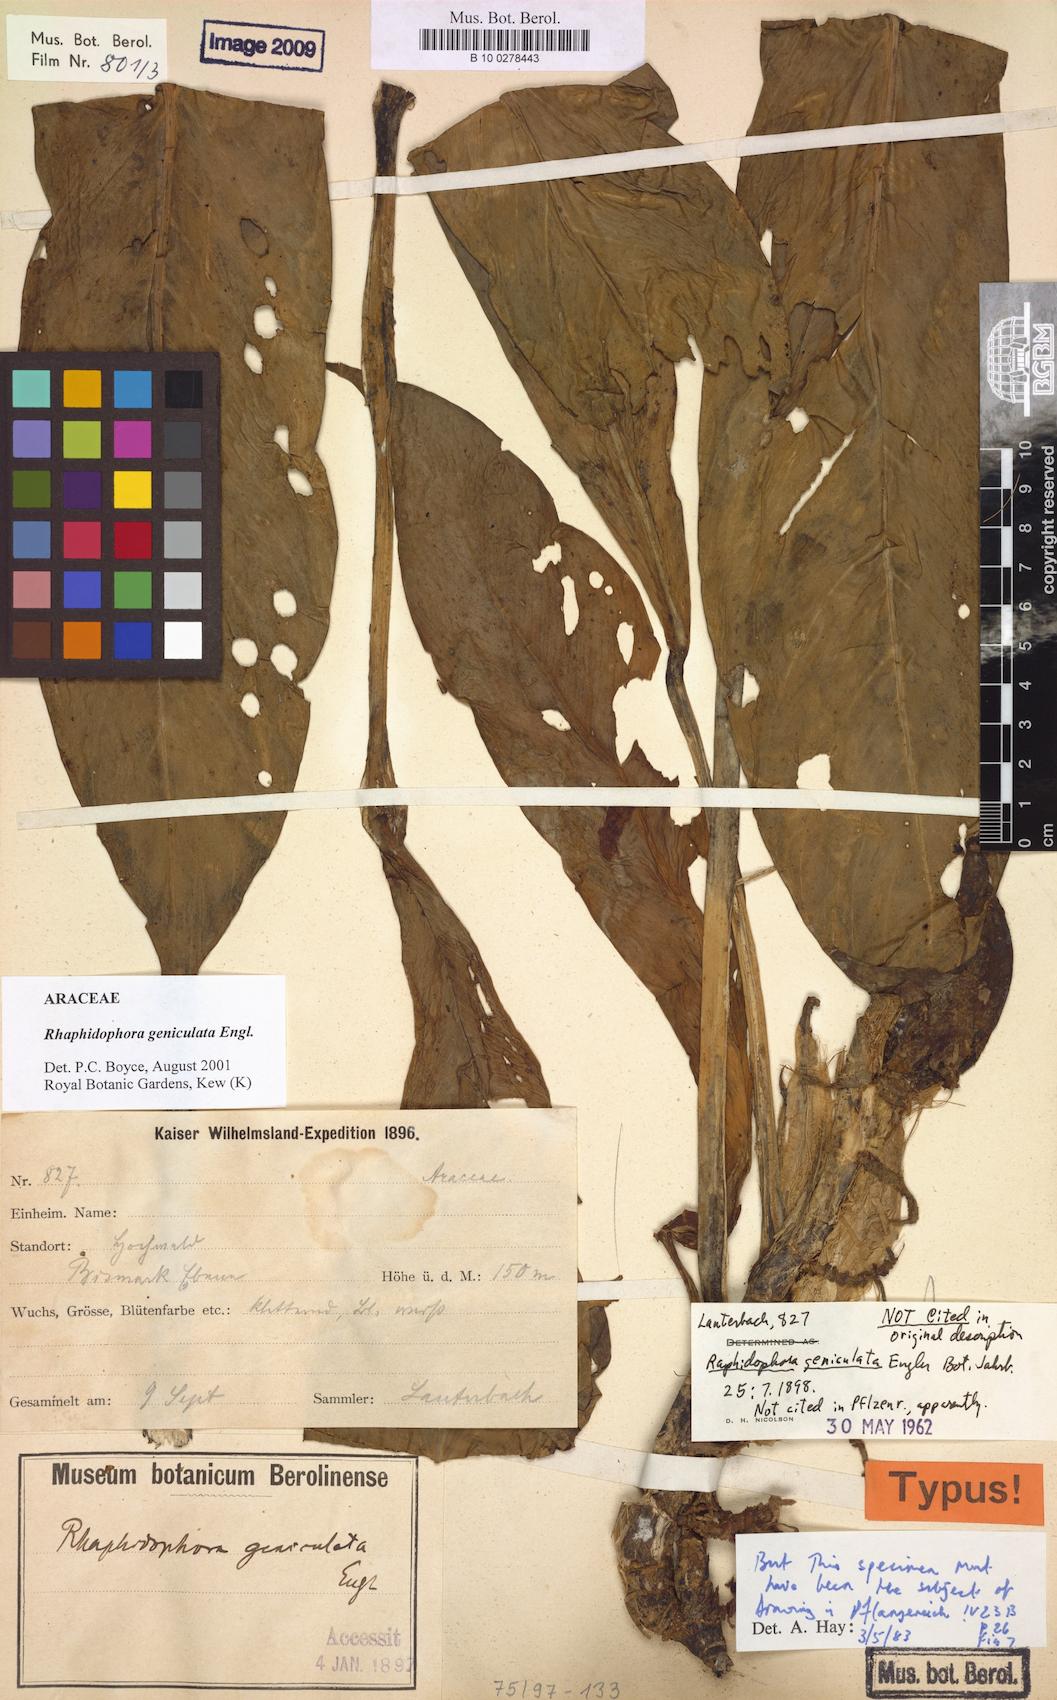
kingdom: Plantae
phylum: Tracheophyta
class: Liliopsida
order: Alismatales
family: Araceae
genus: Rhaphidophora
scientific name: Rhaphidophora geniculata
